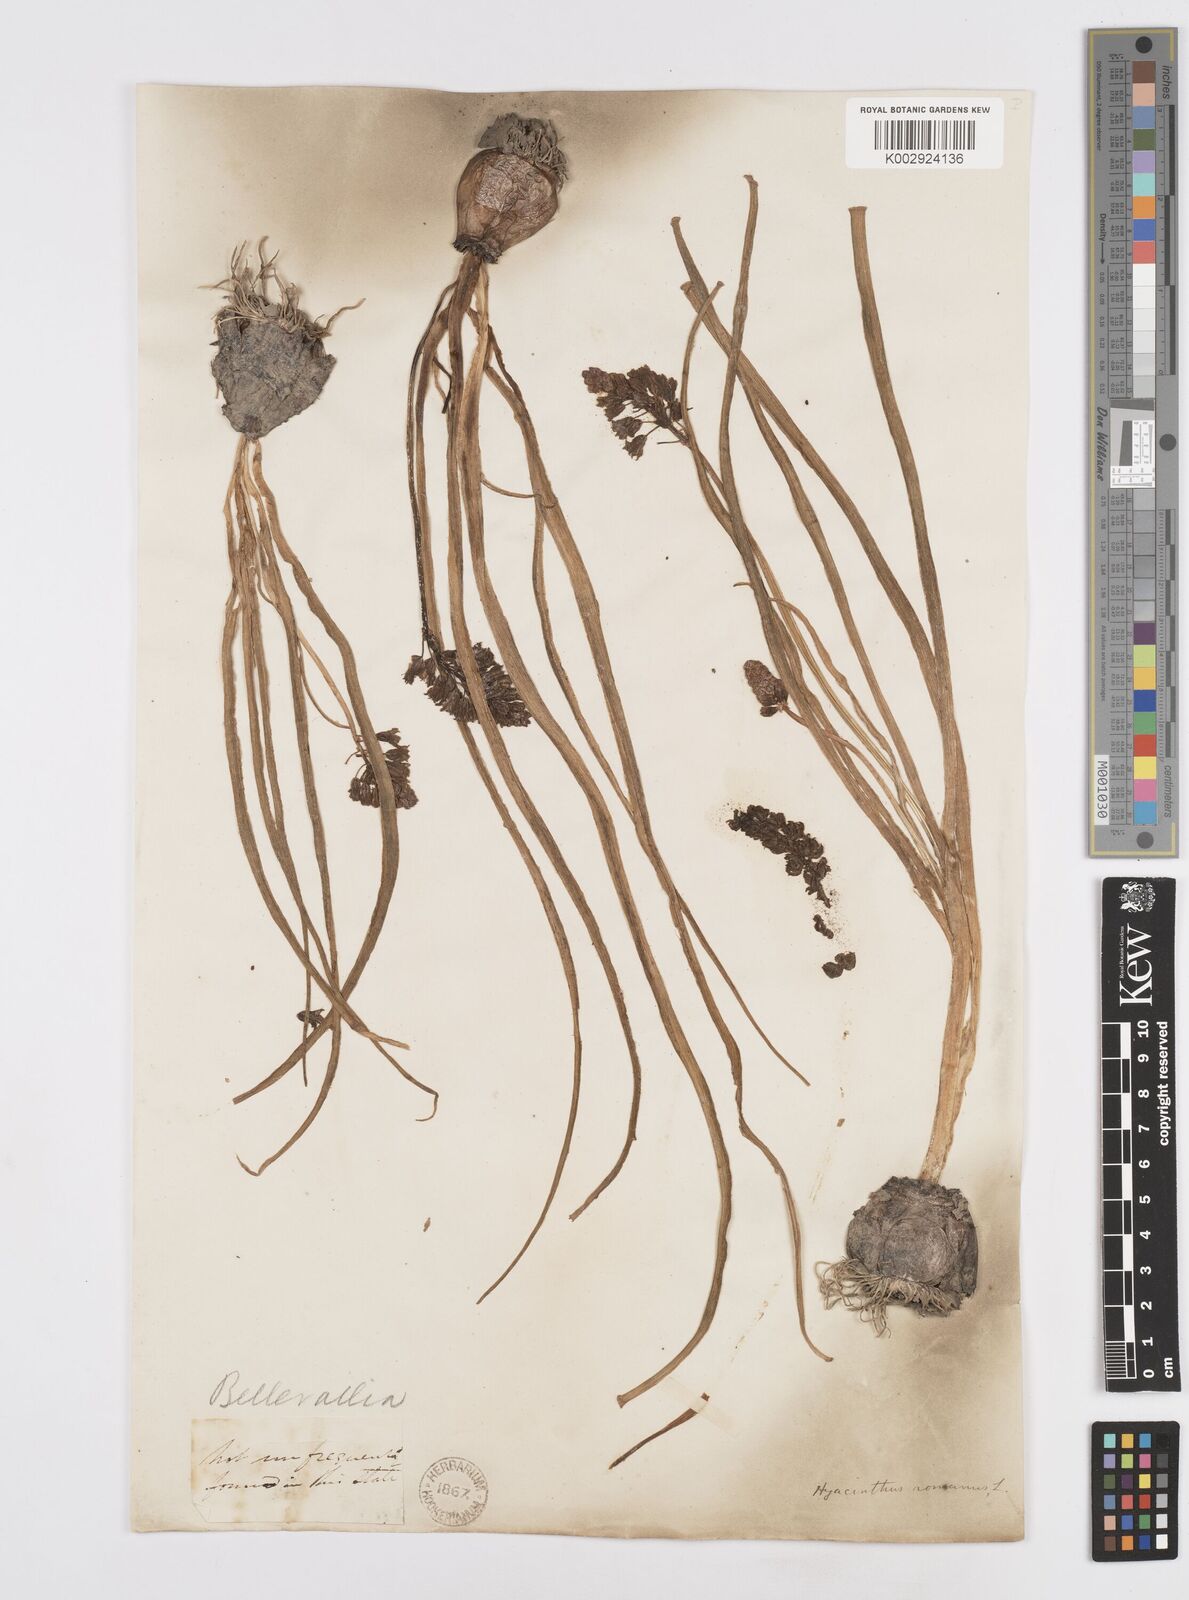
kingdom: Plantae
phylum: Tracheophyta
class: Liliopsida
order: Asparagales
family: Asparagaceae
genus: Bellevalia
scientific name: Bellevalia
